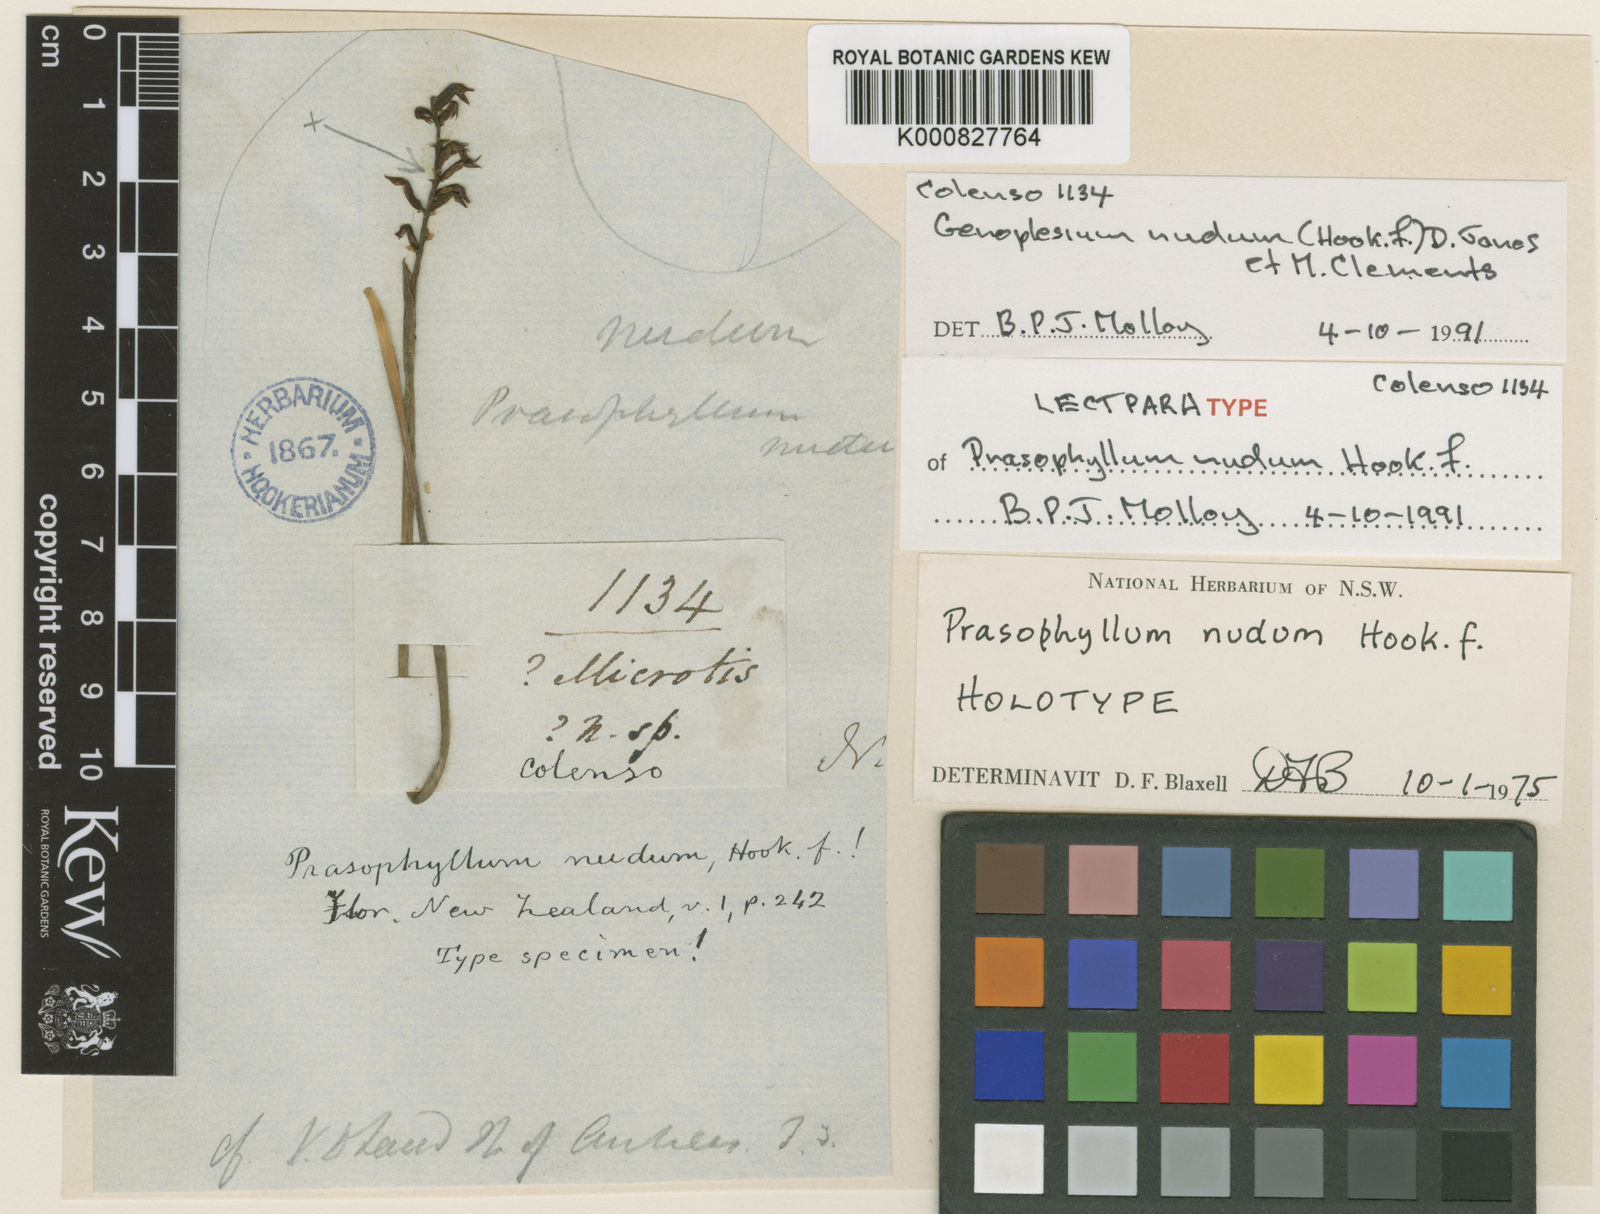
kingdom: Plantae
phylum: Tracheophyta
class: Liliopsida
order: Asparagales
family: Orchidaceae
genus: Genoplesium
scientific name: Genoplesium nudum
